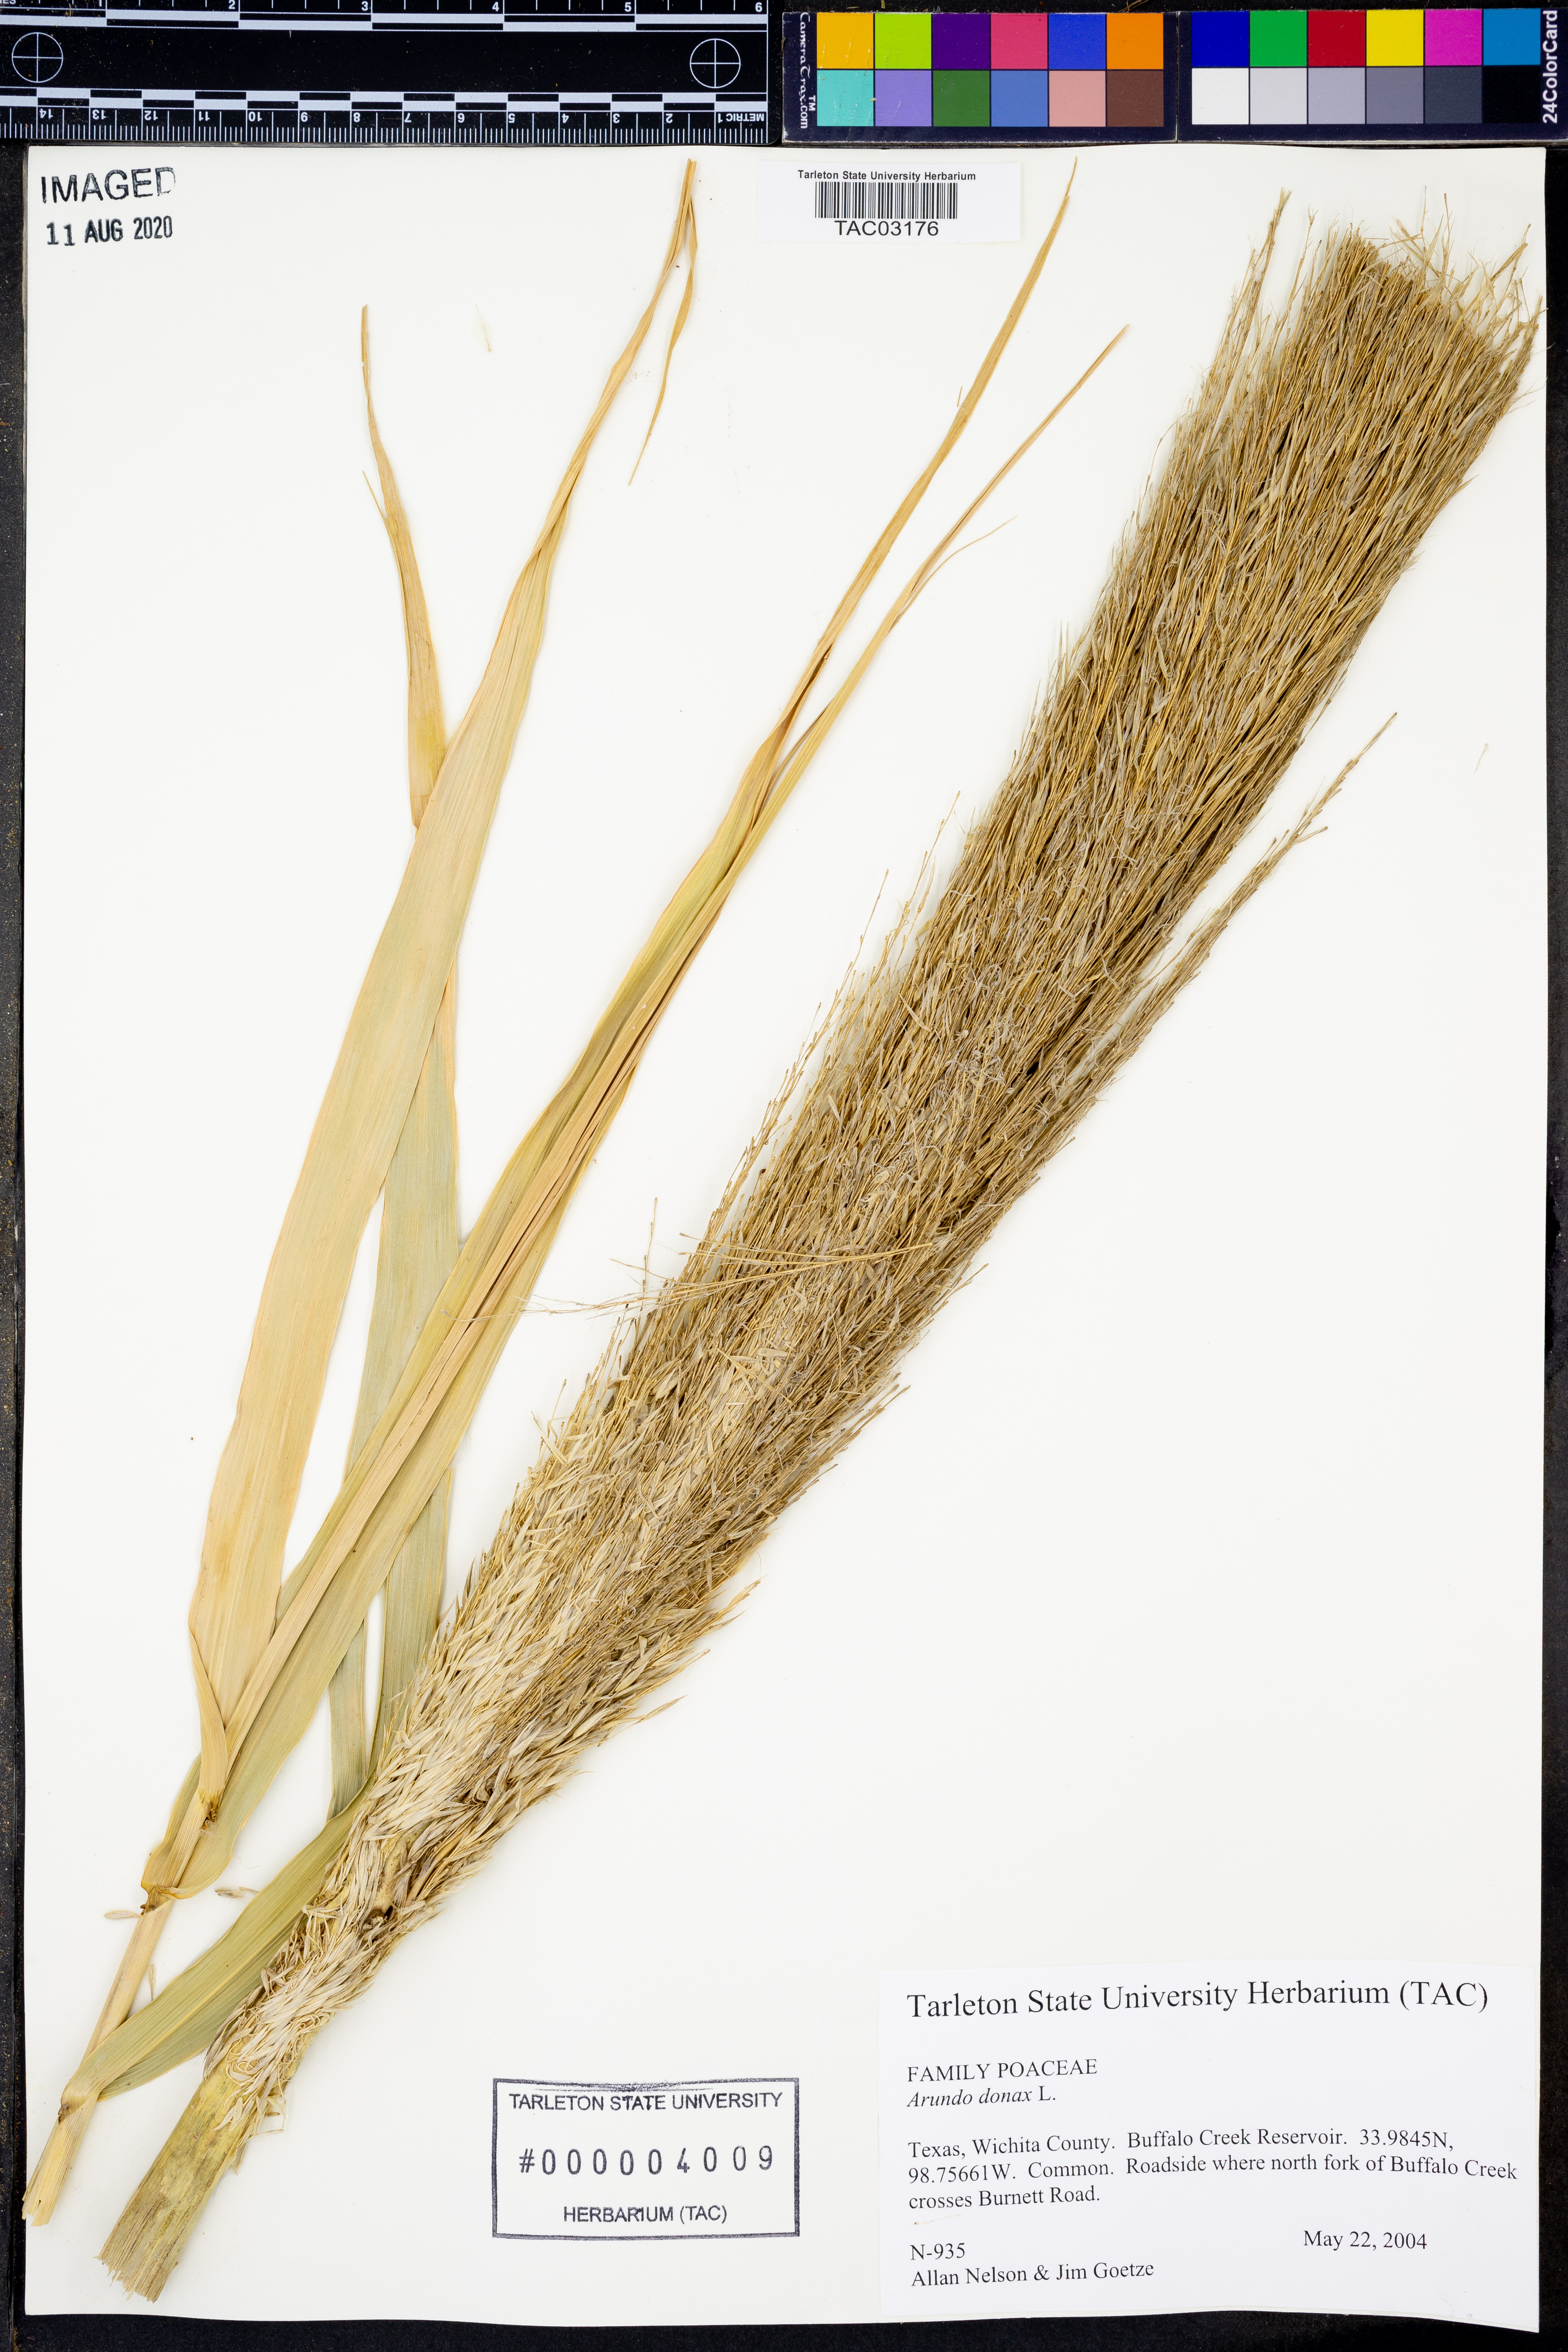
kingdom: Plantae
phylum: Tracheophyta
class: Liliopsida
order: Poales
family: Poaceae
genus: Arundo
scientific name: Arundo donax
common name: Giant reed
